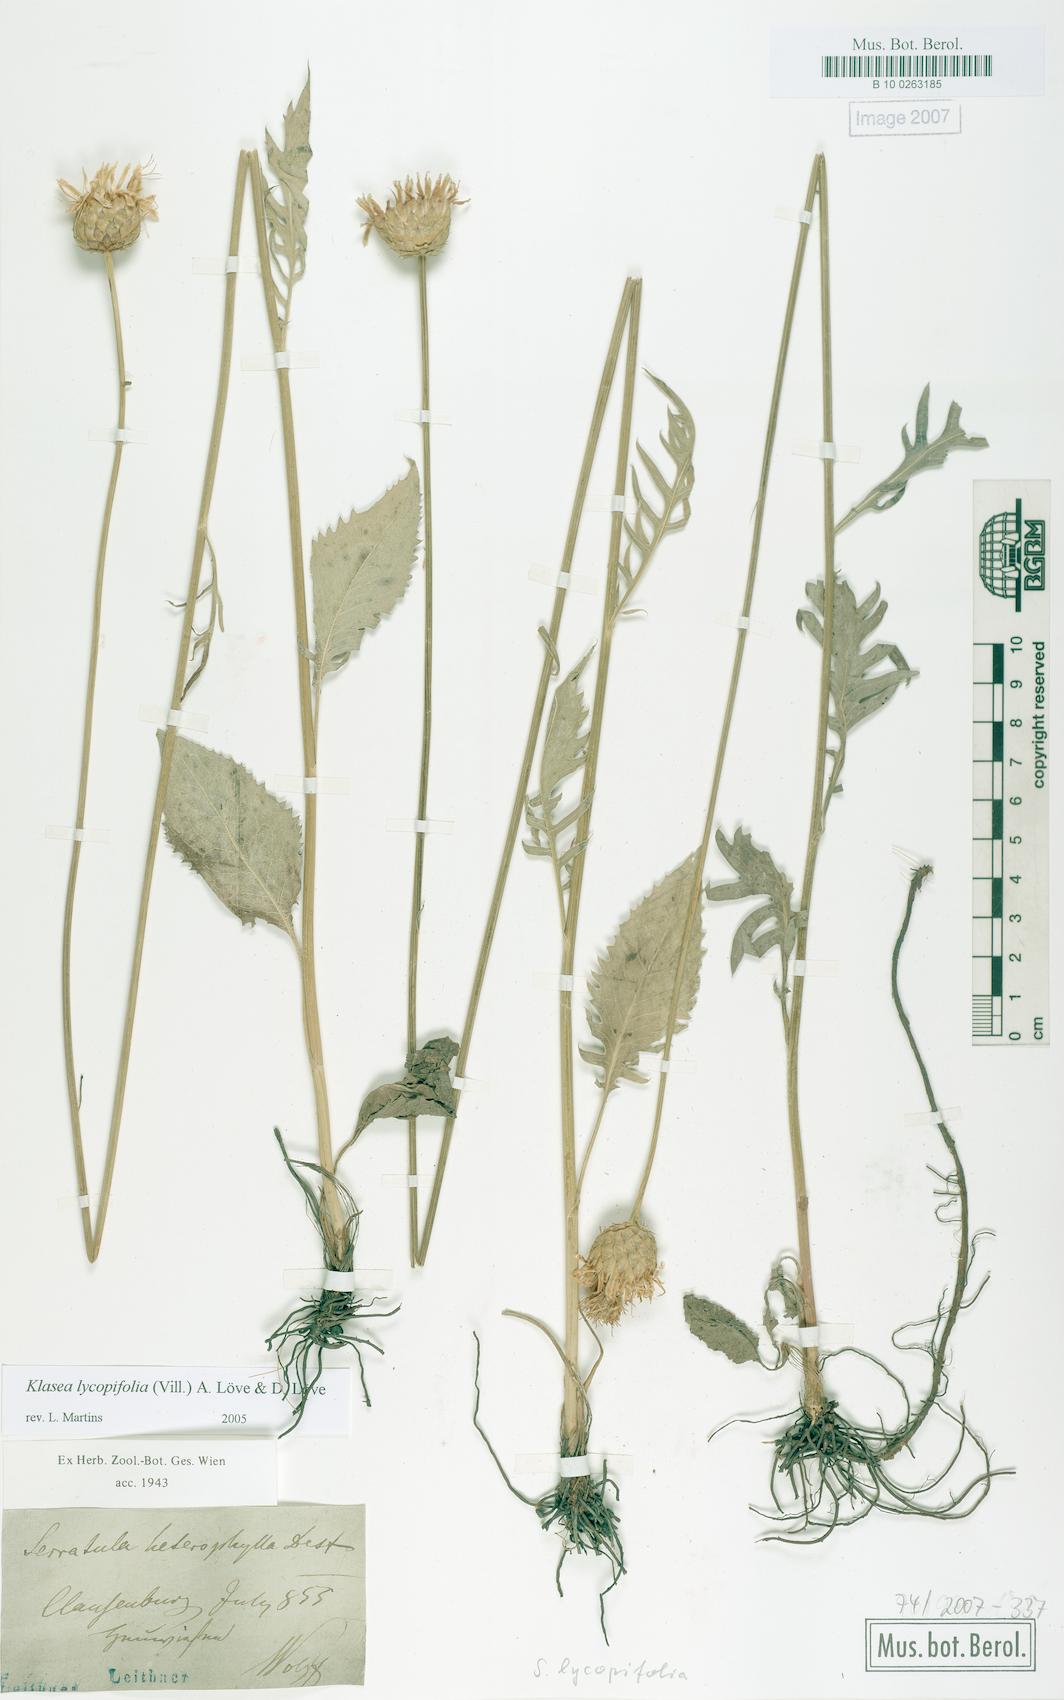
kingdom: Plantae
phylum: Tracheophyta
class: Magnoliopsida
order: Asterales
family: Asteraceae
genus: Klasea
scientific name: Klasea lycopifolia
